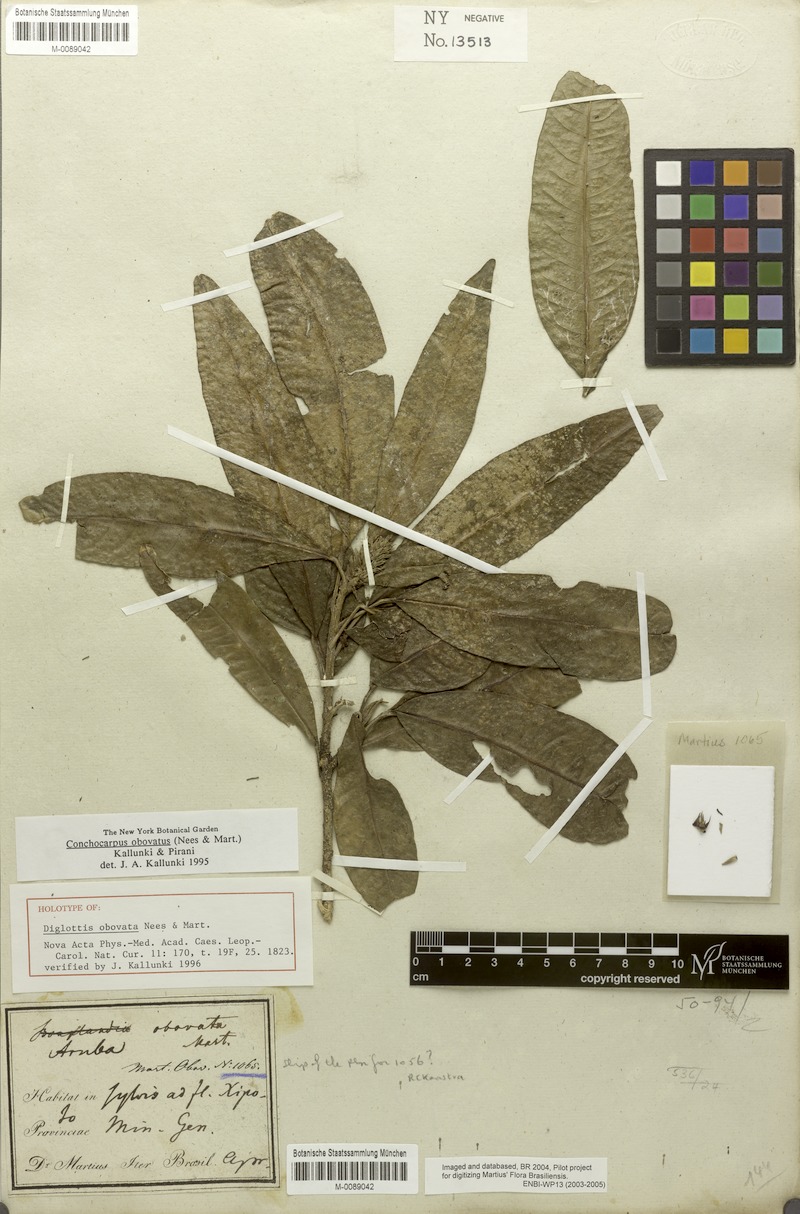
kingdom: Plantae
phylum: Tracheophyta
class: Magnoliopsida
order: Sapindales
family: Rutaceae
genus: Conchocarpus
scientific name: Conchocarpus obovatus
